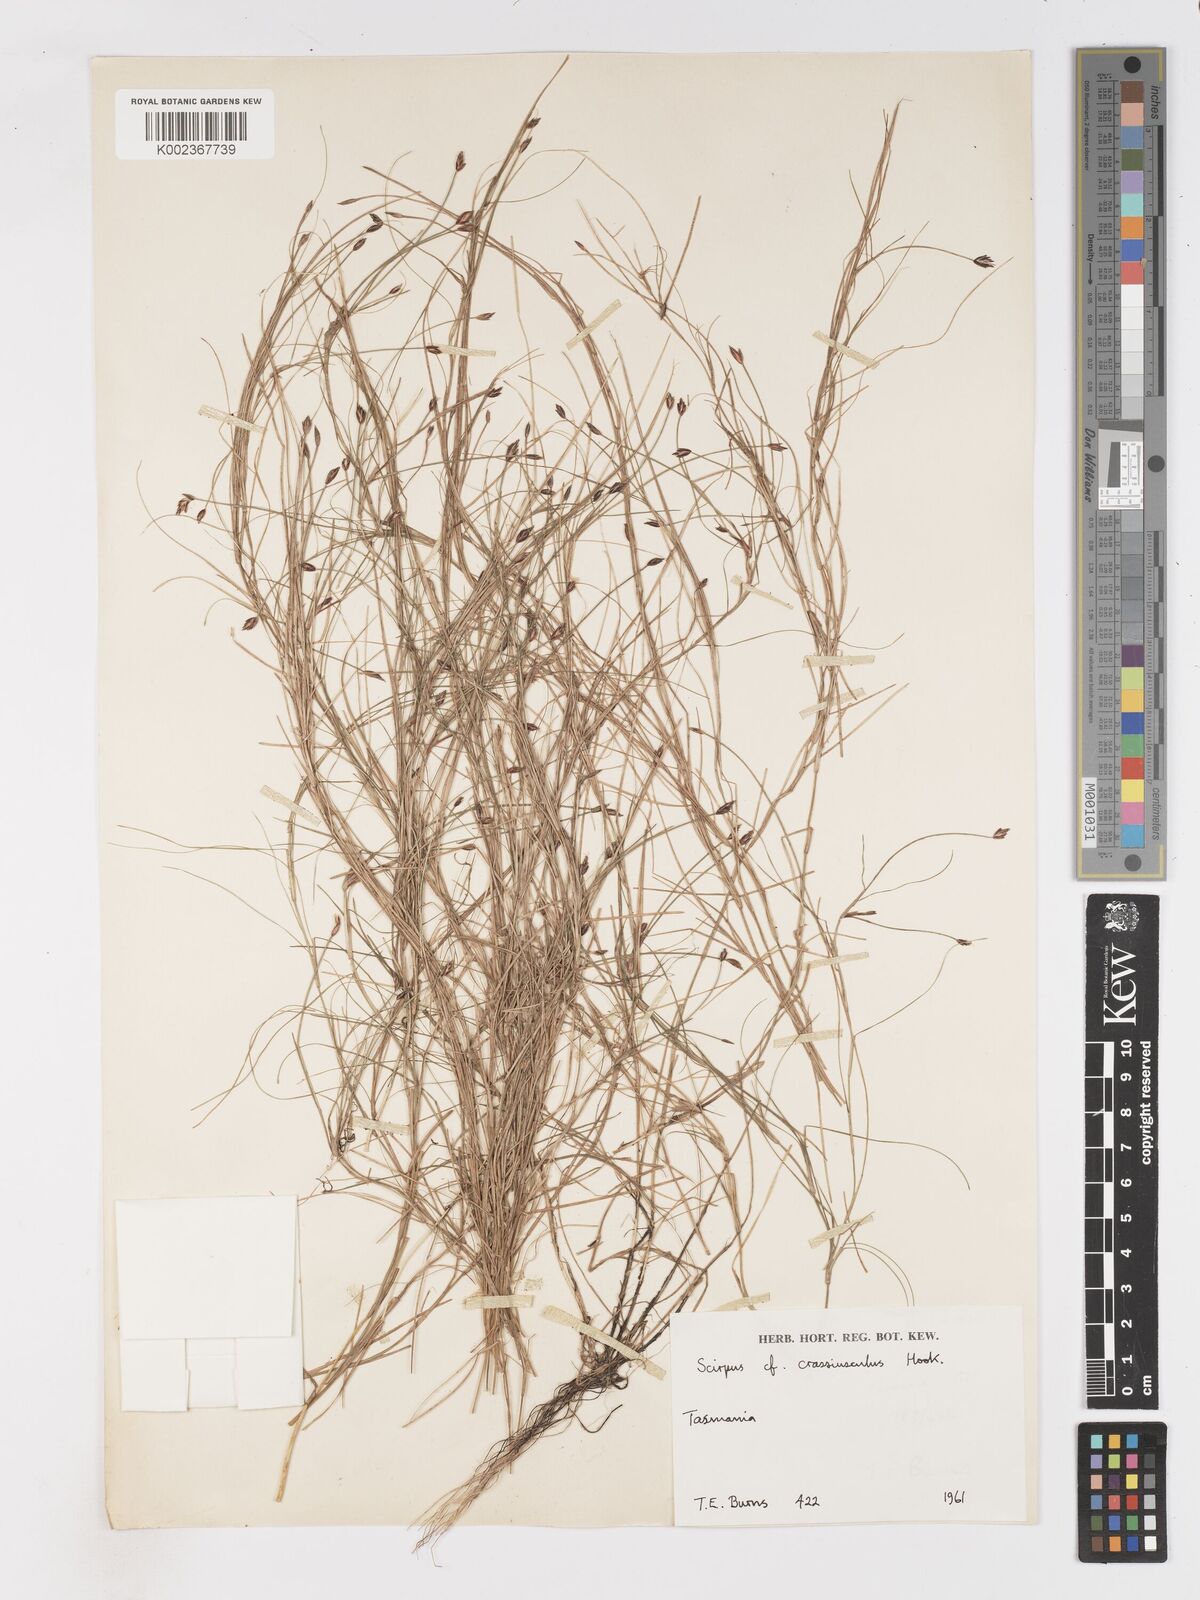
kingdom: Plantae
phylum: Tracheophyta
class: Liliopsida
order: Poales
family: Cyperaceae
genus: Isolepis
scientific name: Isolepis crassiuscula
